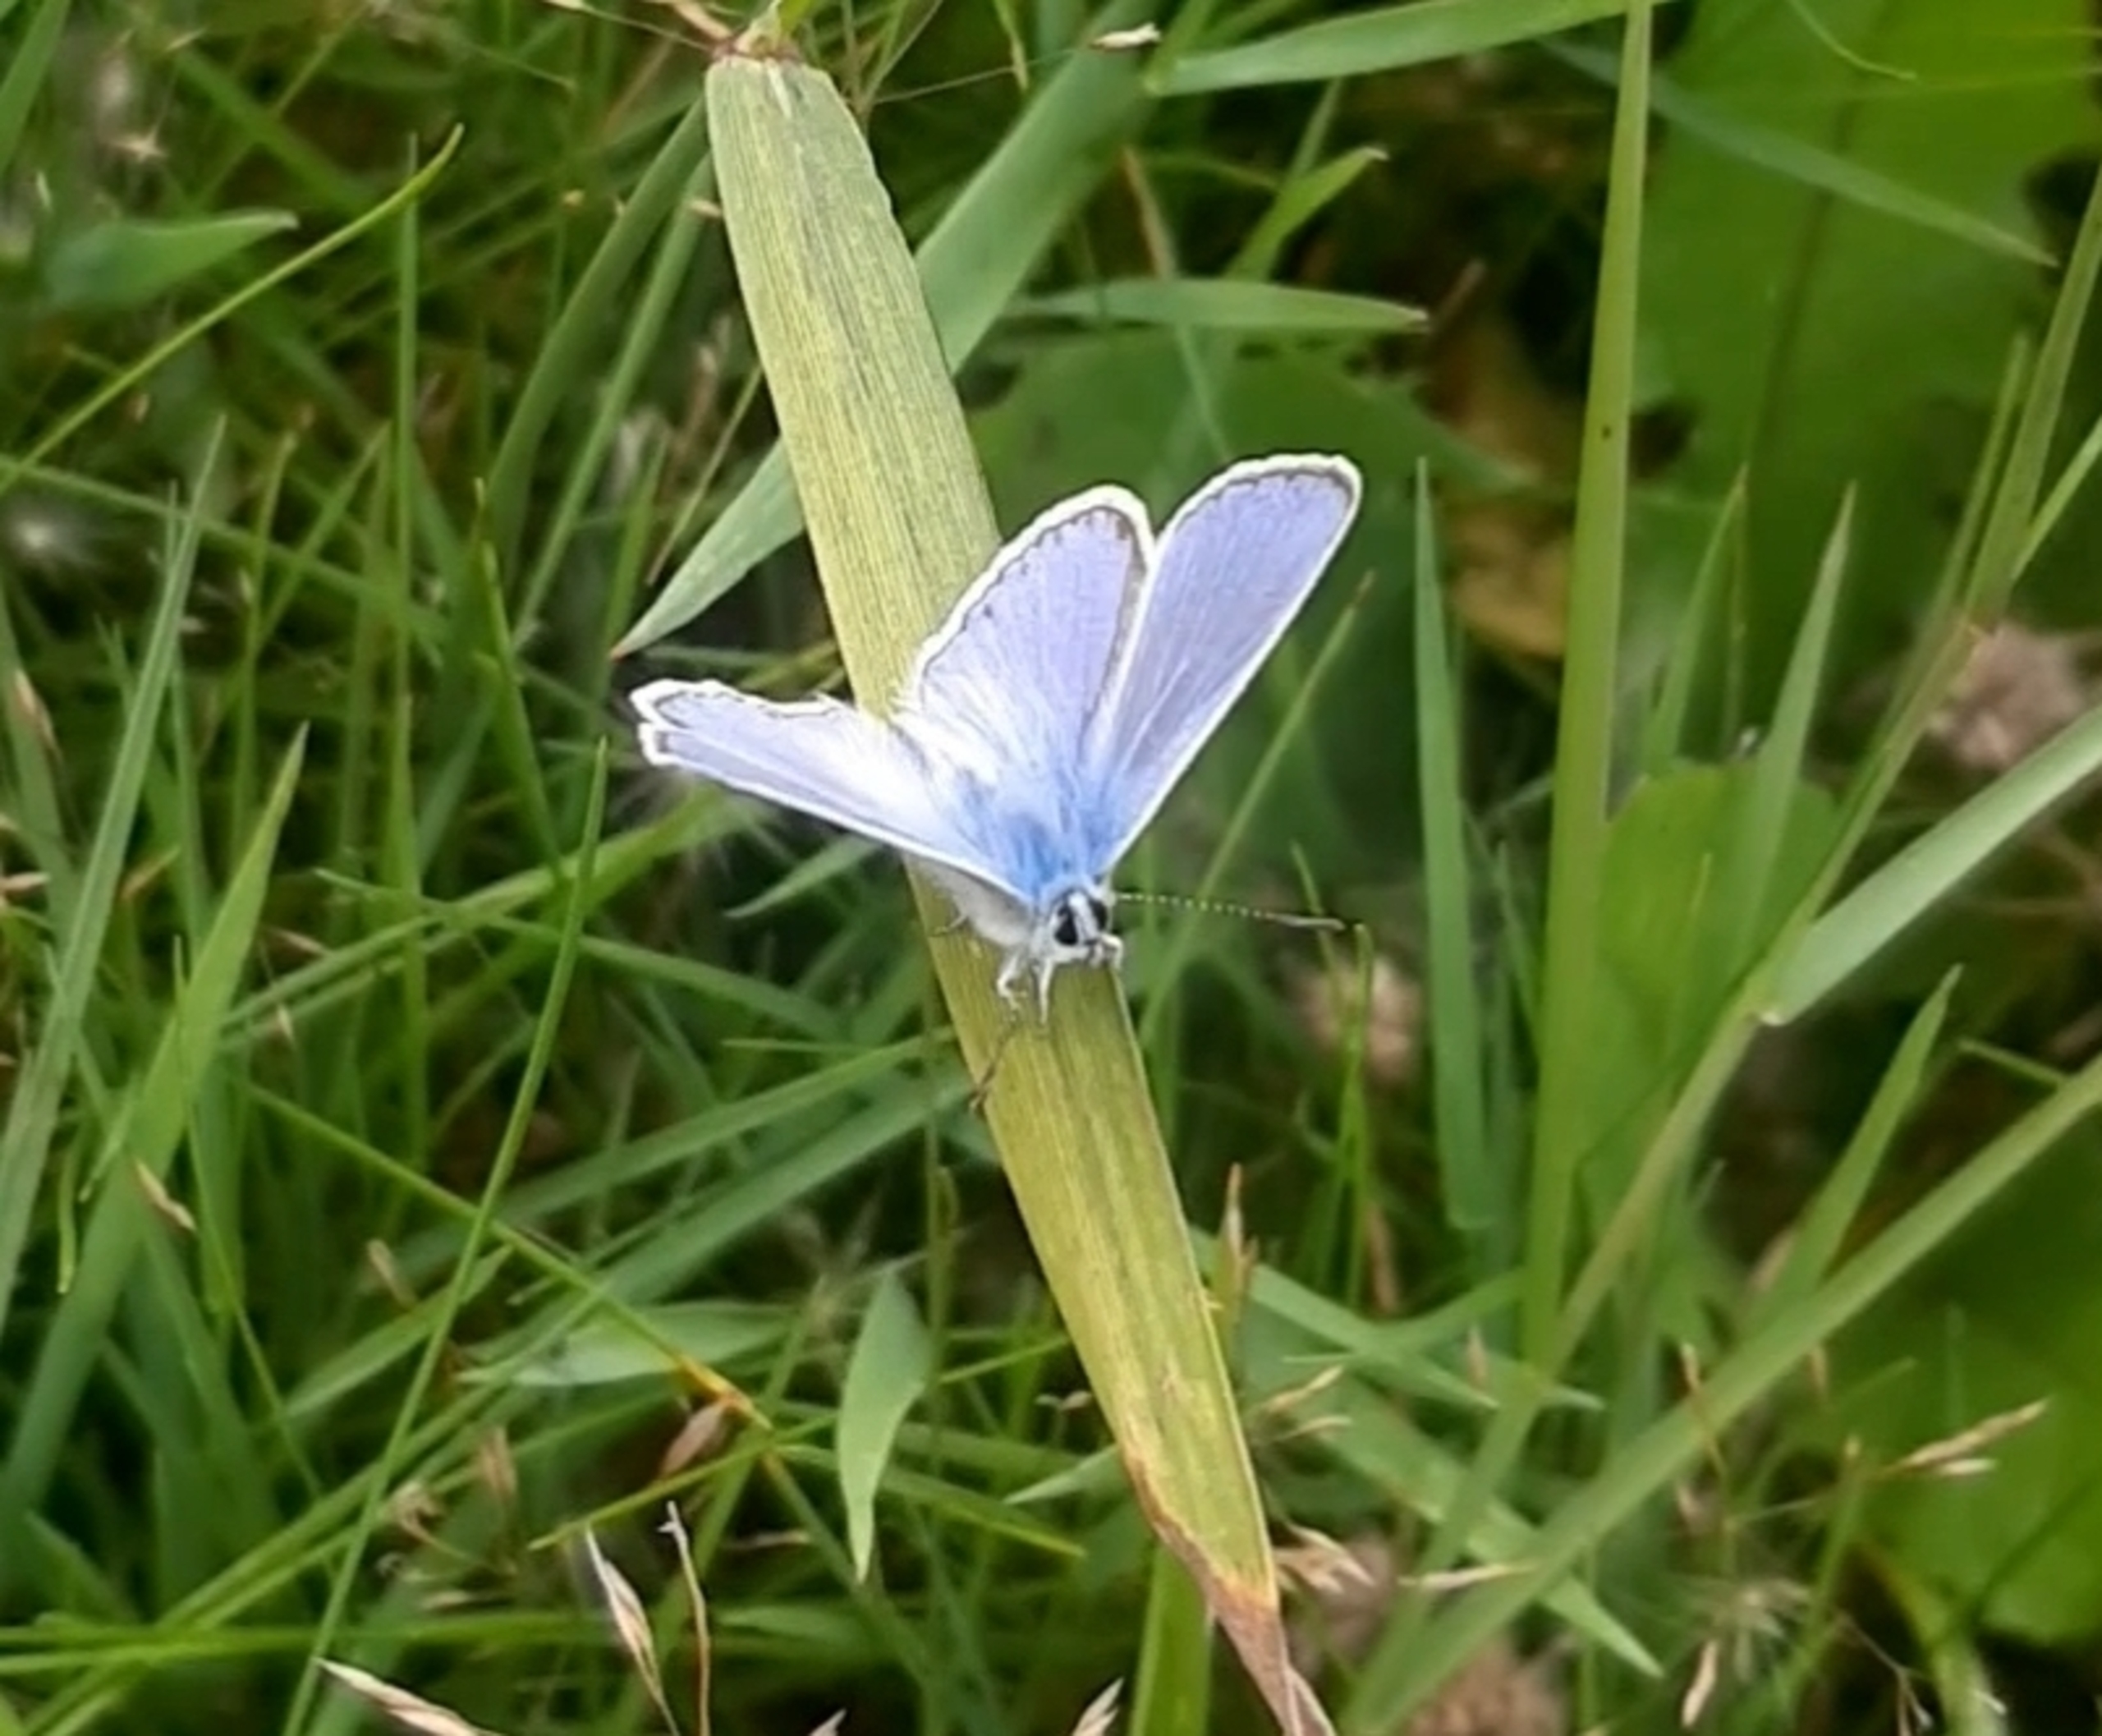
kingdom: Animalia
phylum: Arthropoda
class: Insecta
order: Lepidoptera
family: Lycaenidae
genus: Polyommatus
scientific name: Polyommatus icarus
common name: Almindelig blåfugl
